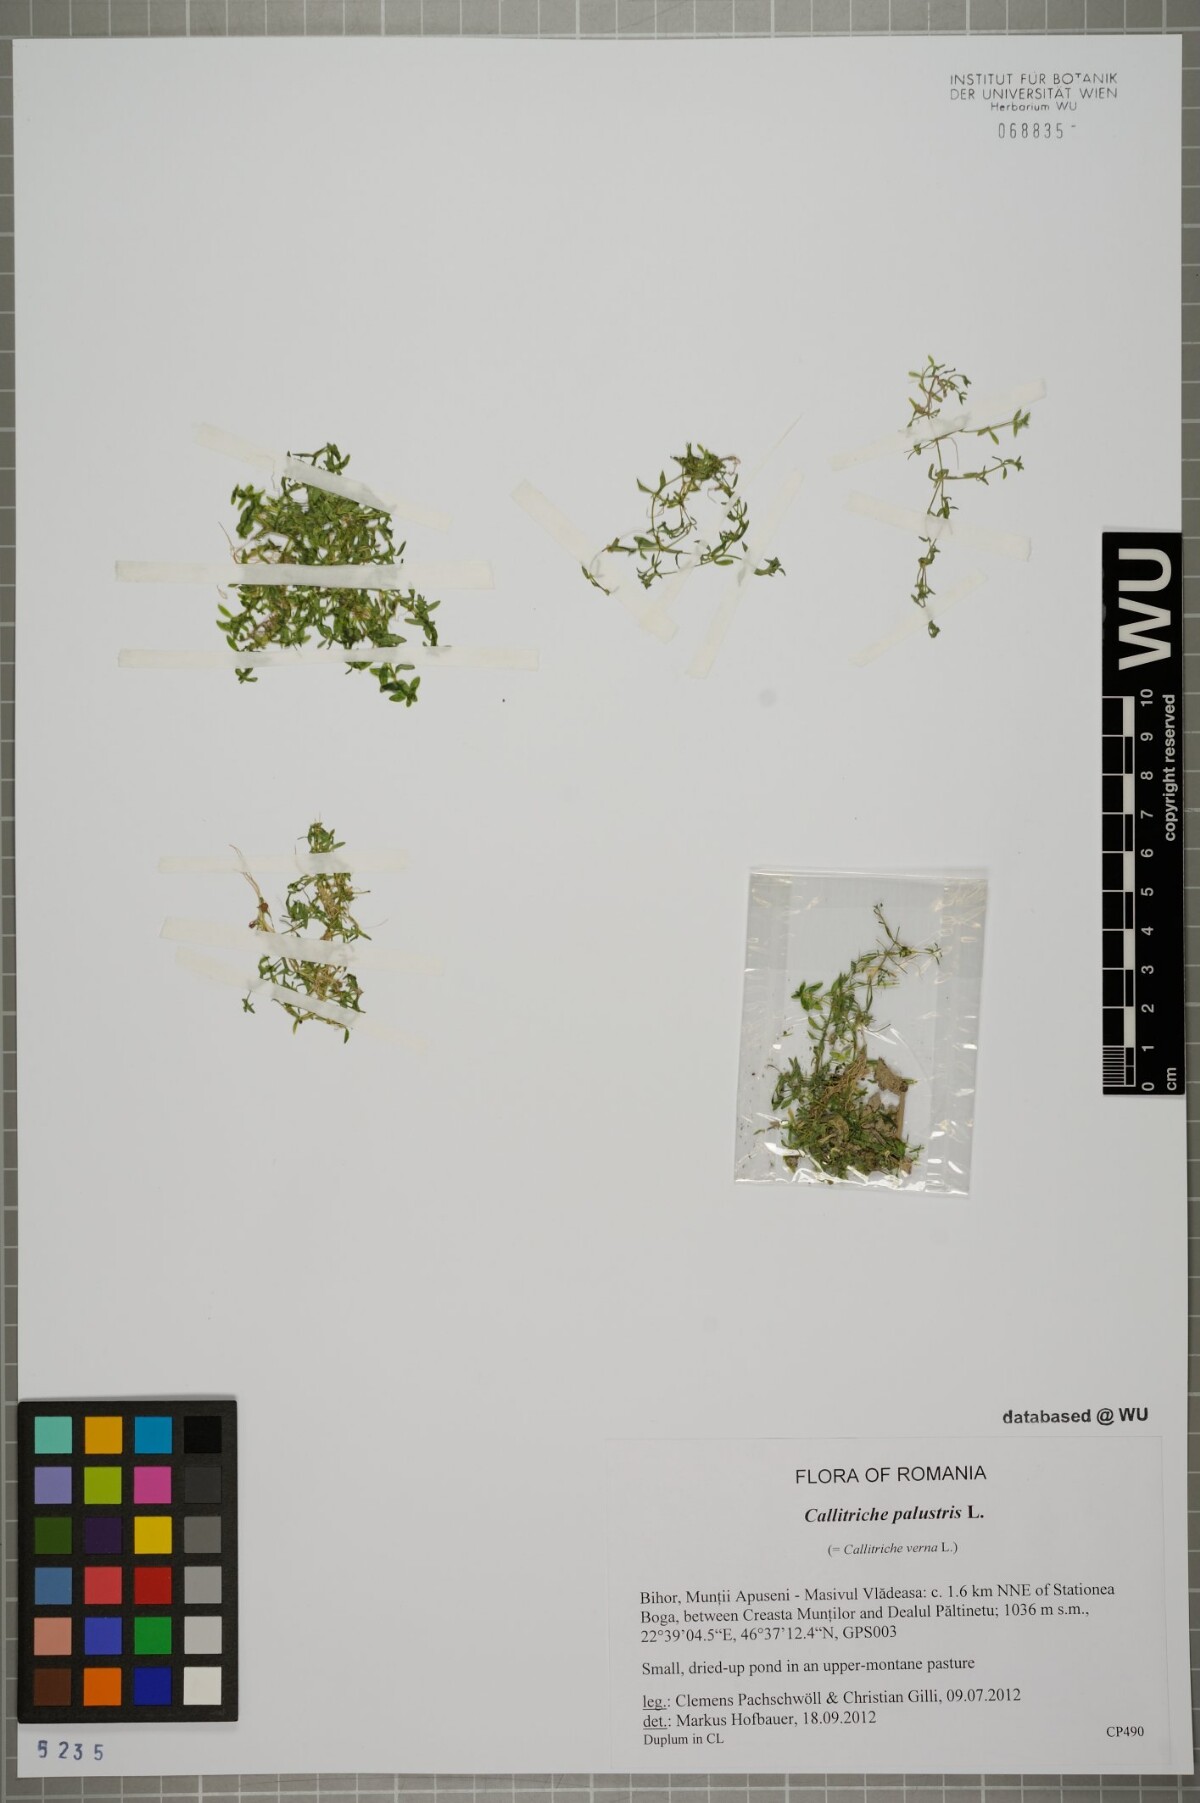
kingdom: Plantae
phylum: Tracheophyta
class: Magnoliopsida
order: Lamiales
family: Plantaginaceae
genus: Callitriche
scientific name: Callitriche palustris
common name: Spring water-starwort
